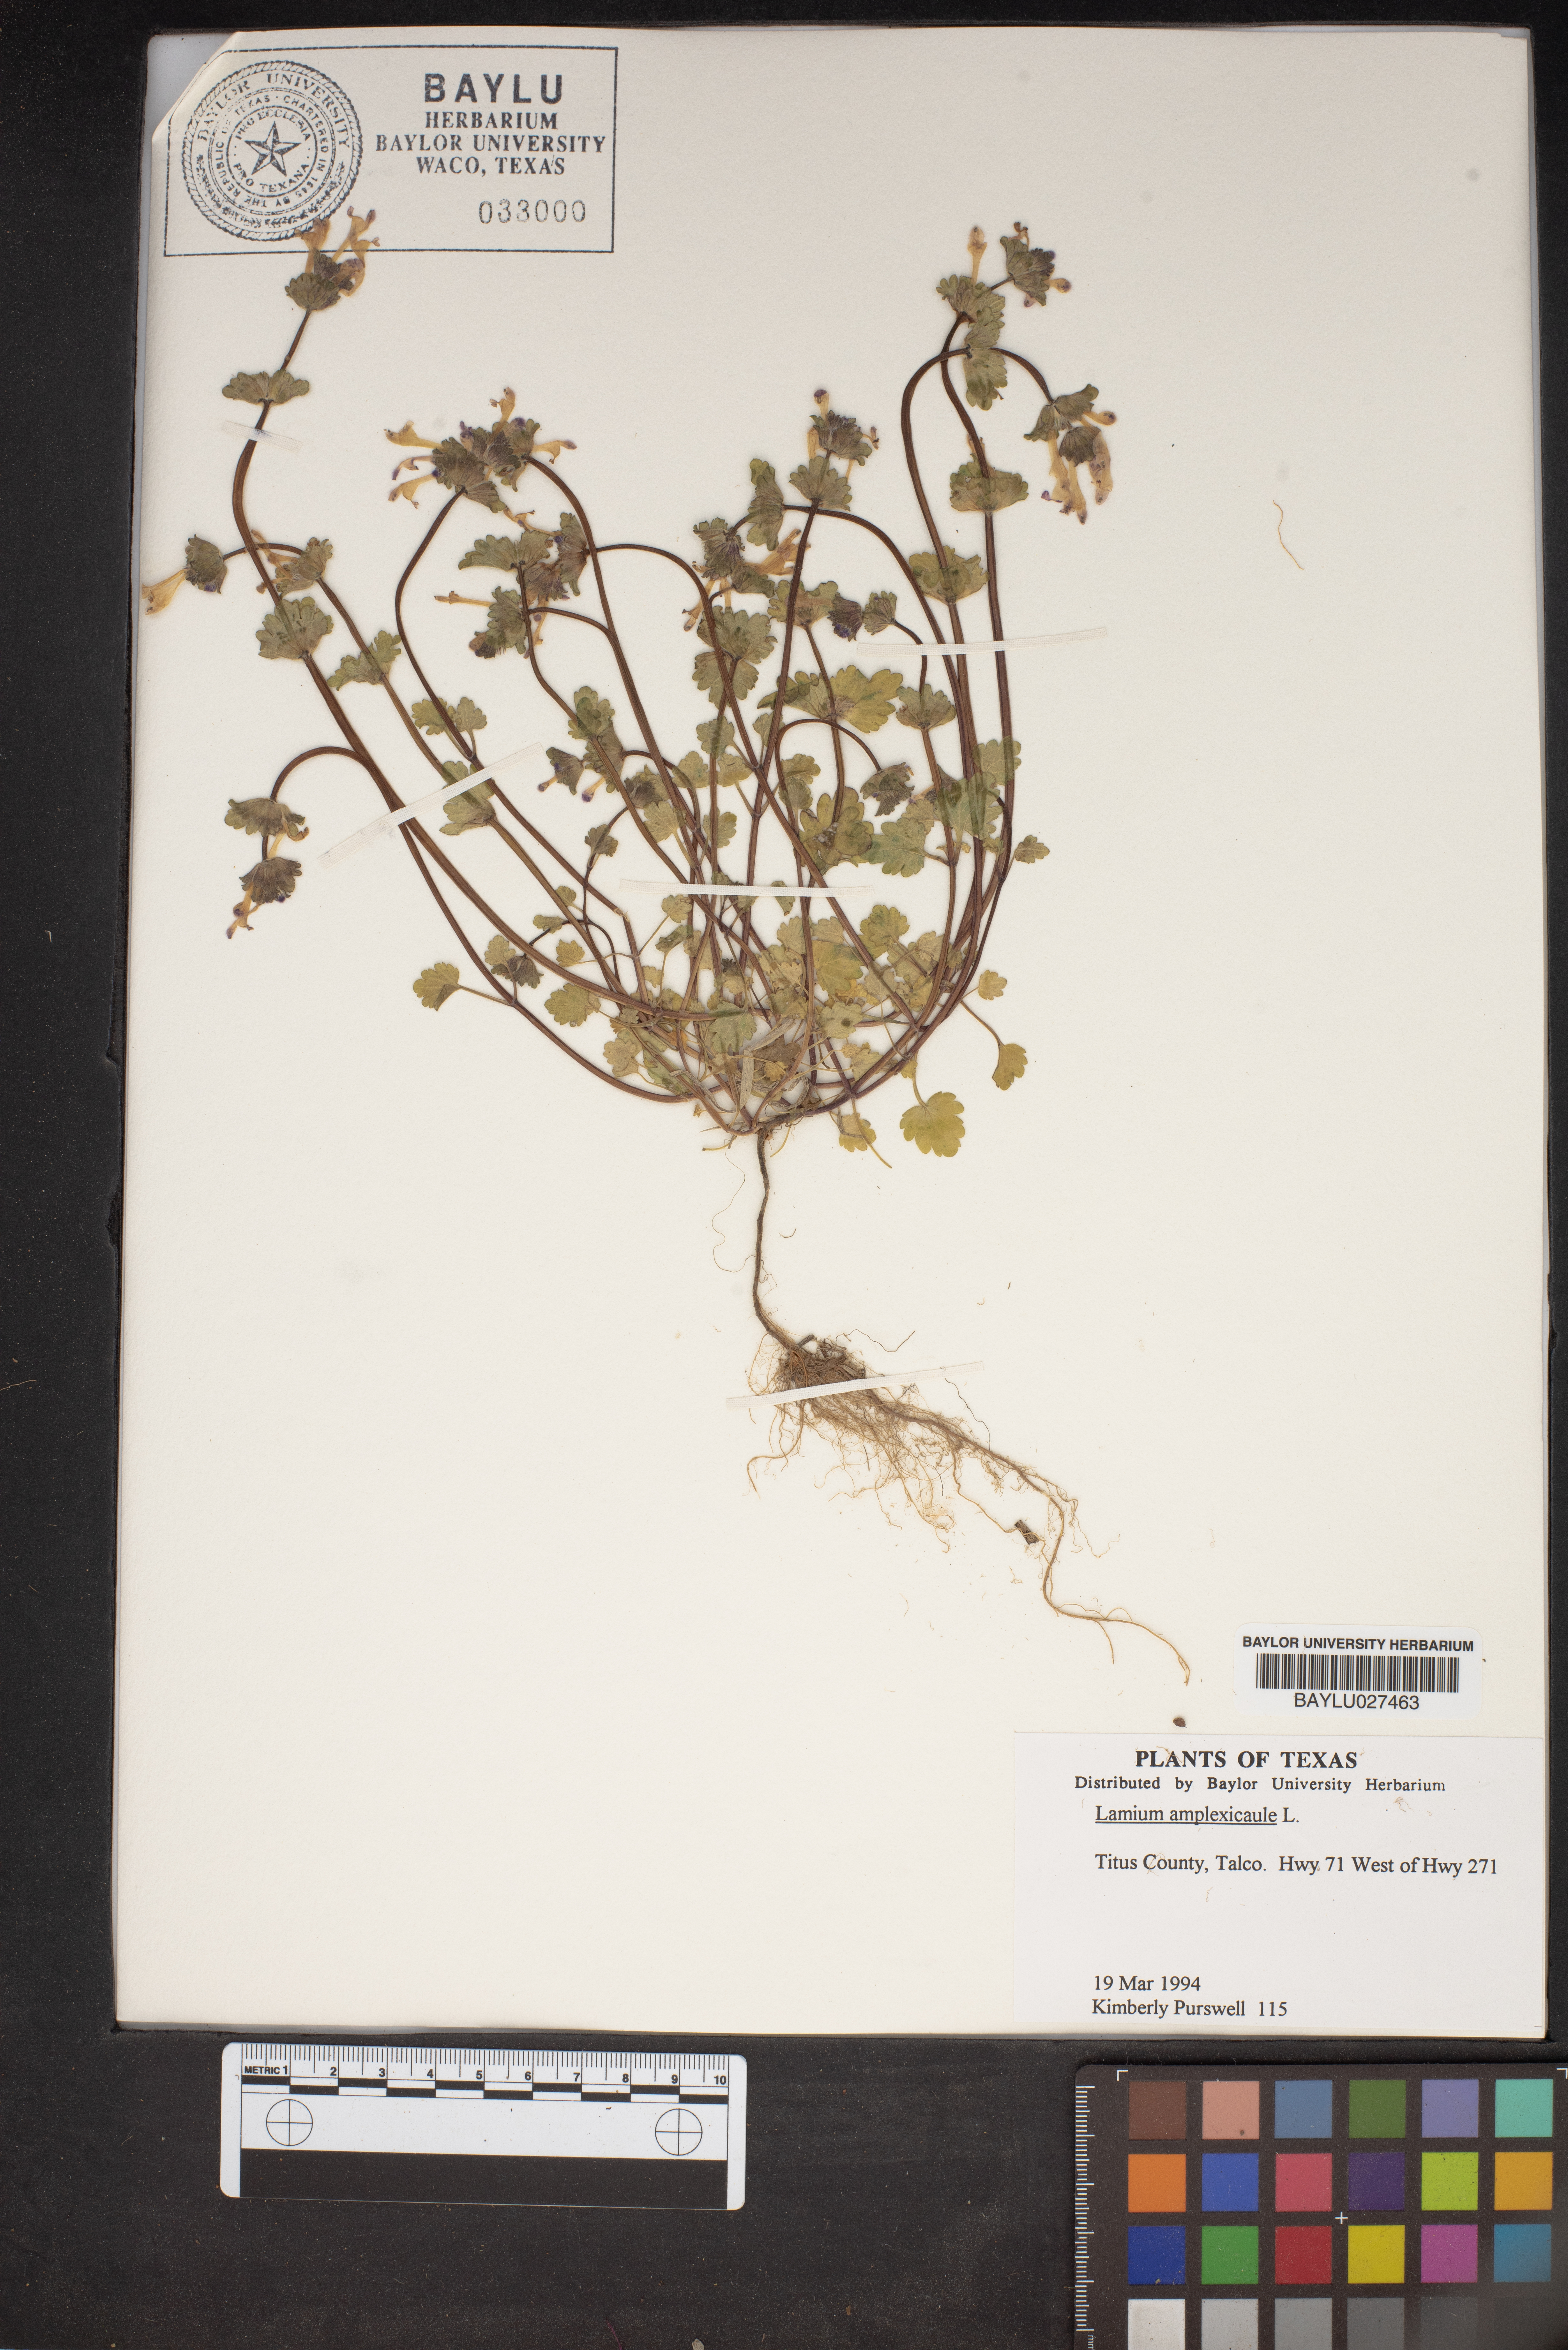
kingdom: Plantae
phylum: Tracheophyta
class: Magnoliopsida
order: Lamiales
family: Lamiaceae
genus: Lamium
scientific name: Lamium amplexicaule
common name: Henbit dead-nettle
